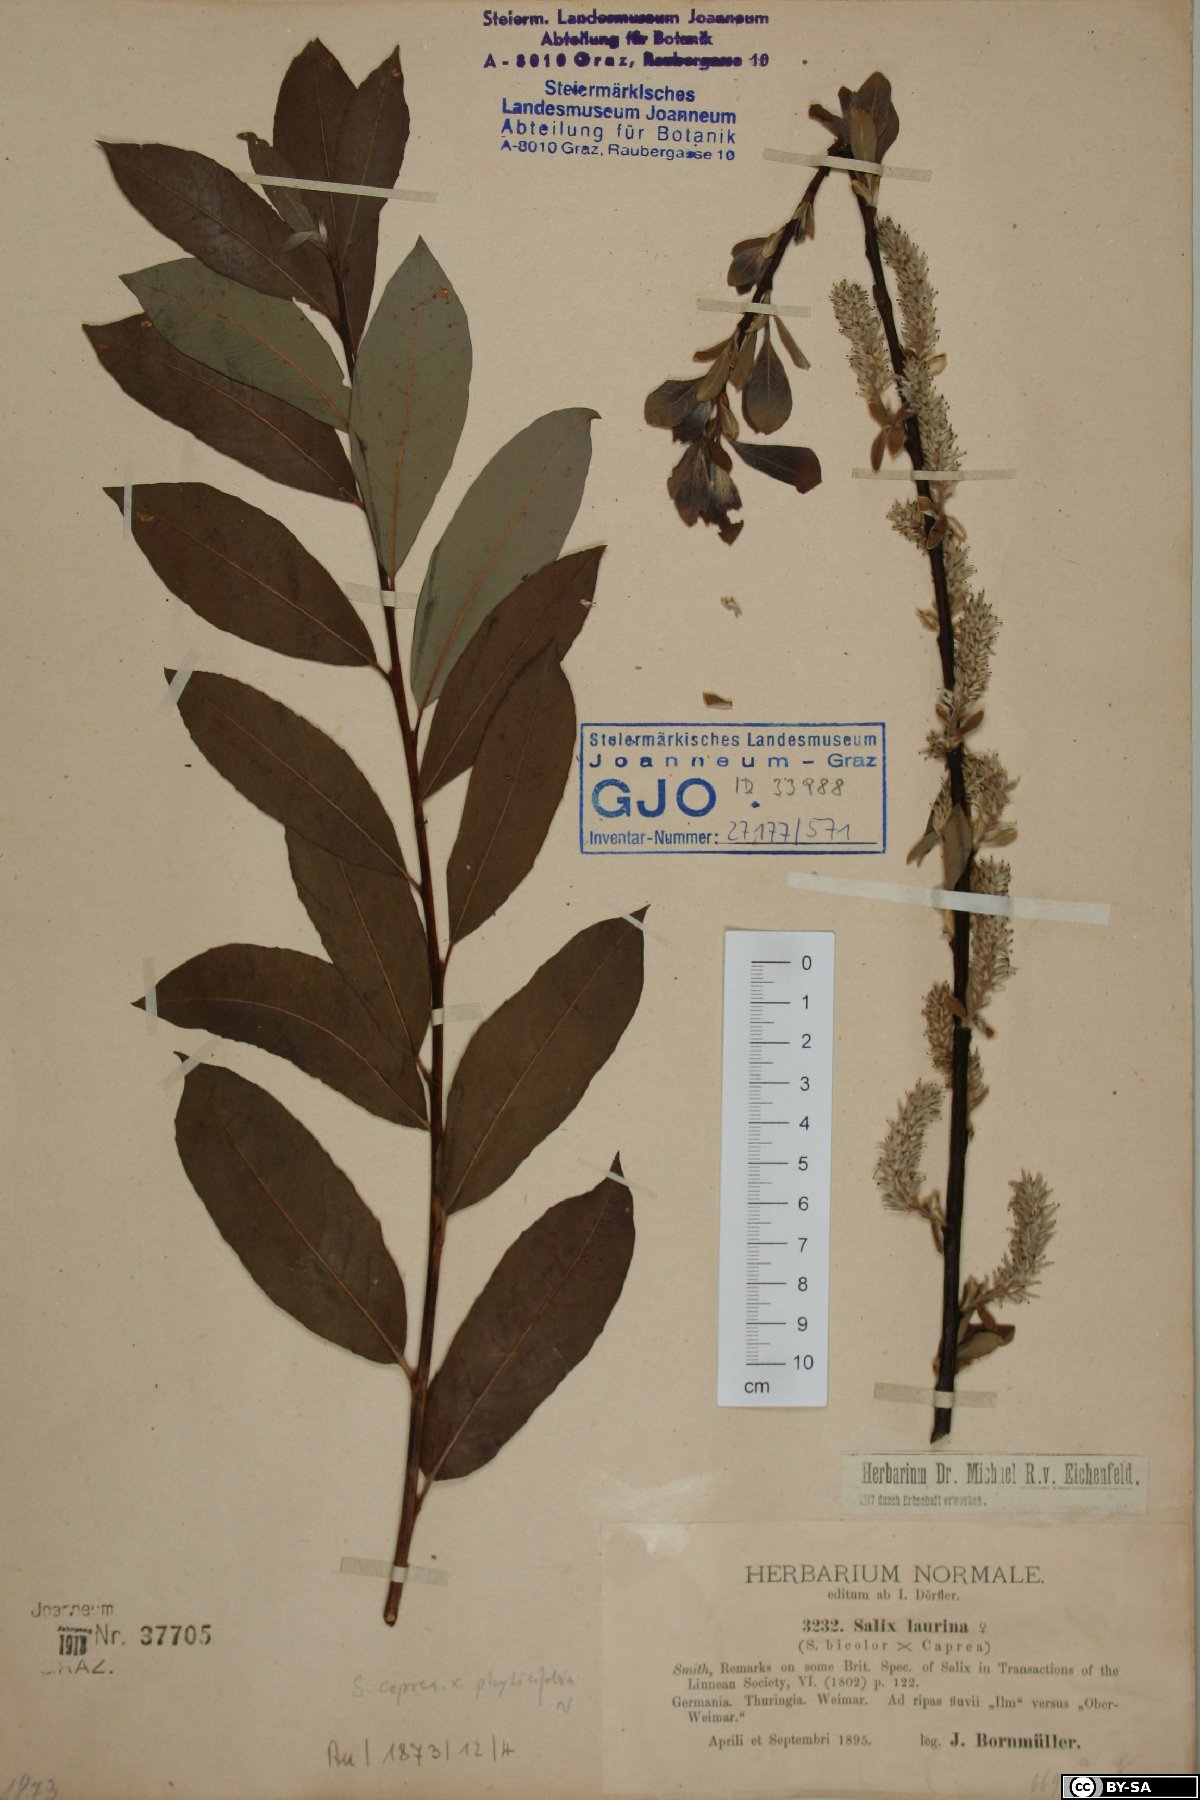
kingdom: Plantae
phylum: Tracheophyta
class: Magnoliopsida
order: Malpighiales
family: Salicaceae
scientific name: Salicaceae
